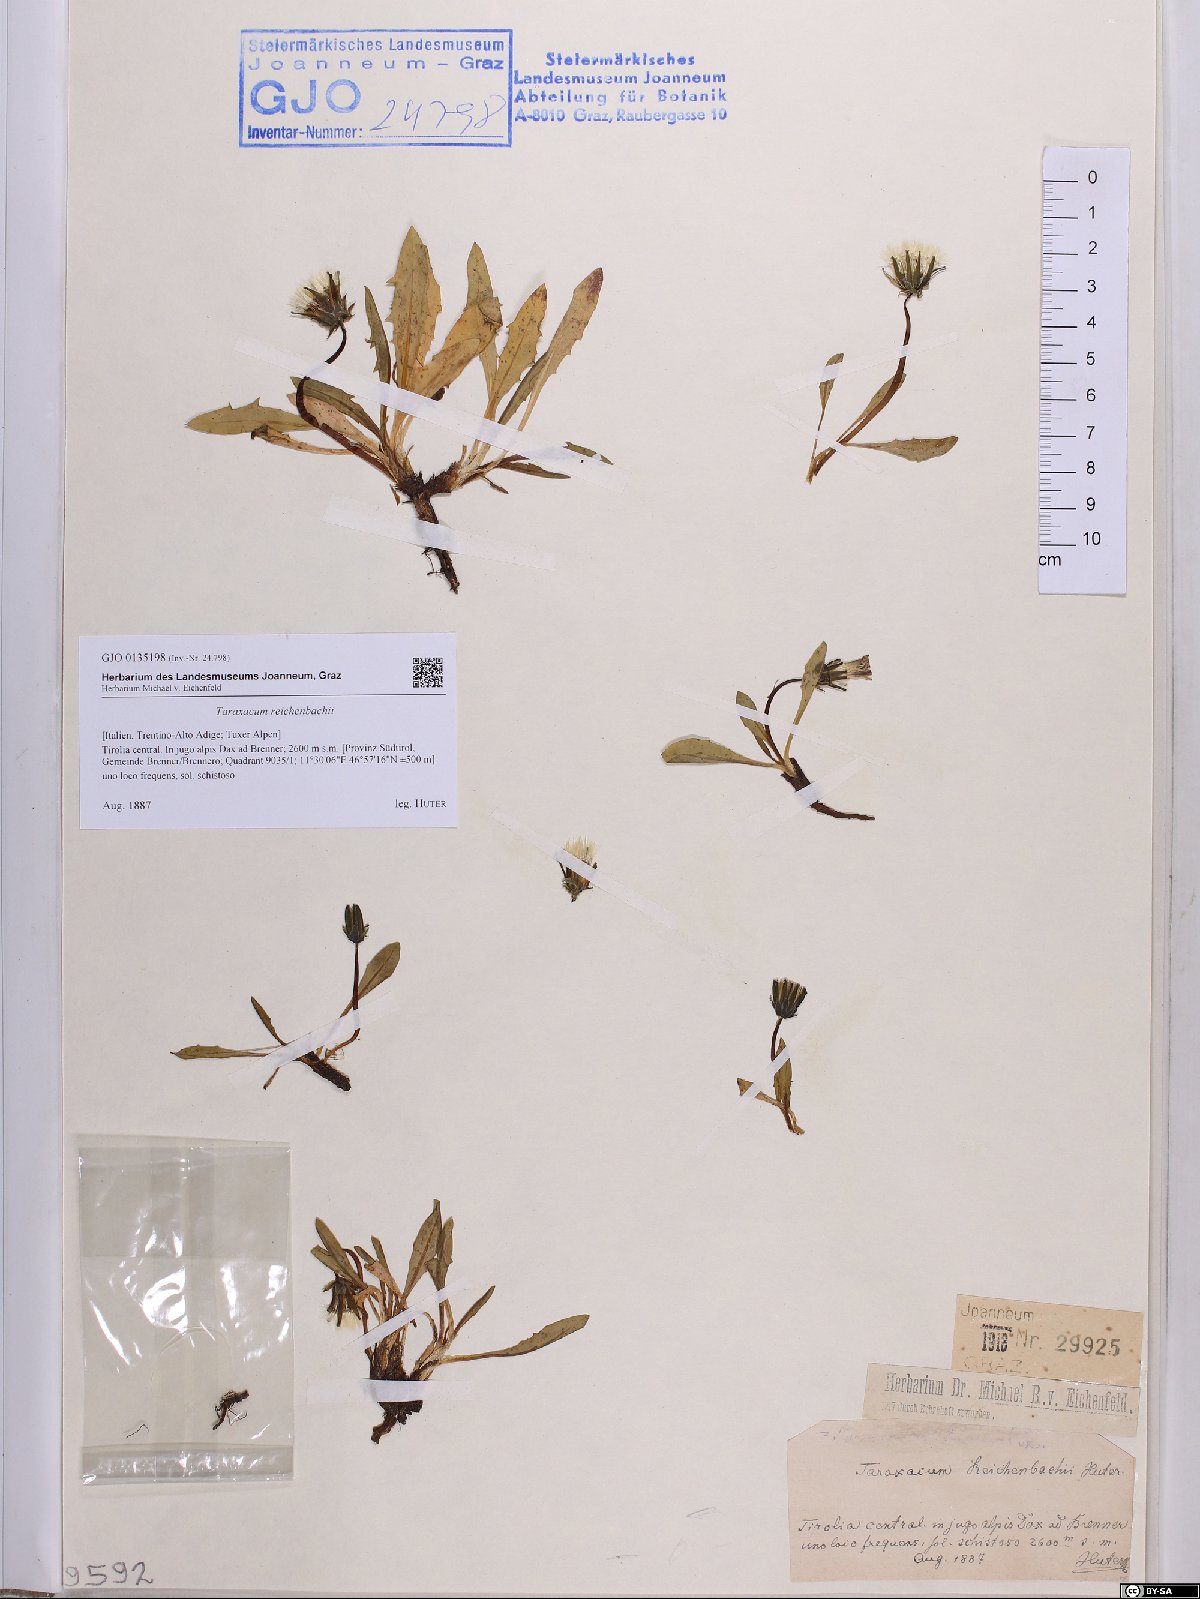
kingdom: Plantae
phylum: Tracheophyta
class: Magnoliopsida
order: Asterales
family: Asteraceae
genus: Taraxacum
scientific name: Taraxacum reichenbachii
